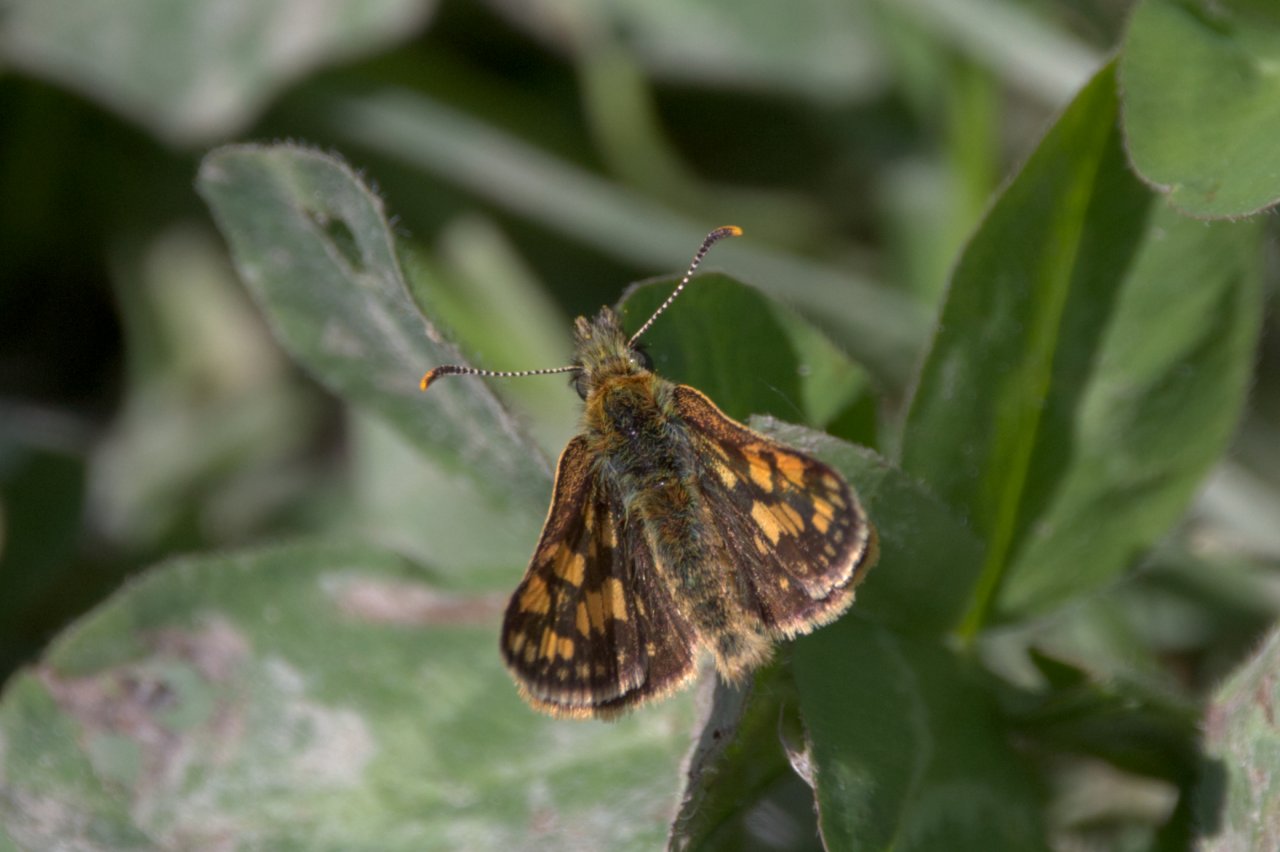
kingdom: Animalia
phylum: Arthropoda
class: Insecta
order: Lepidoptera
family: Hesperiidae
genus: Carterocephalus
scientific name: Carterocephalus palaemon
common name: Chequered Skipper
